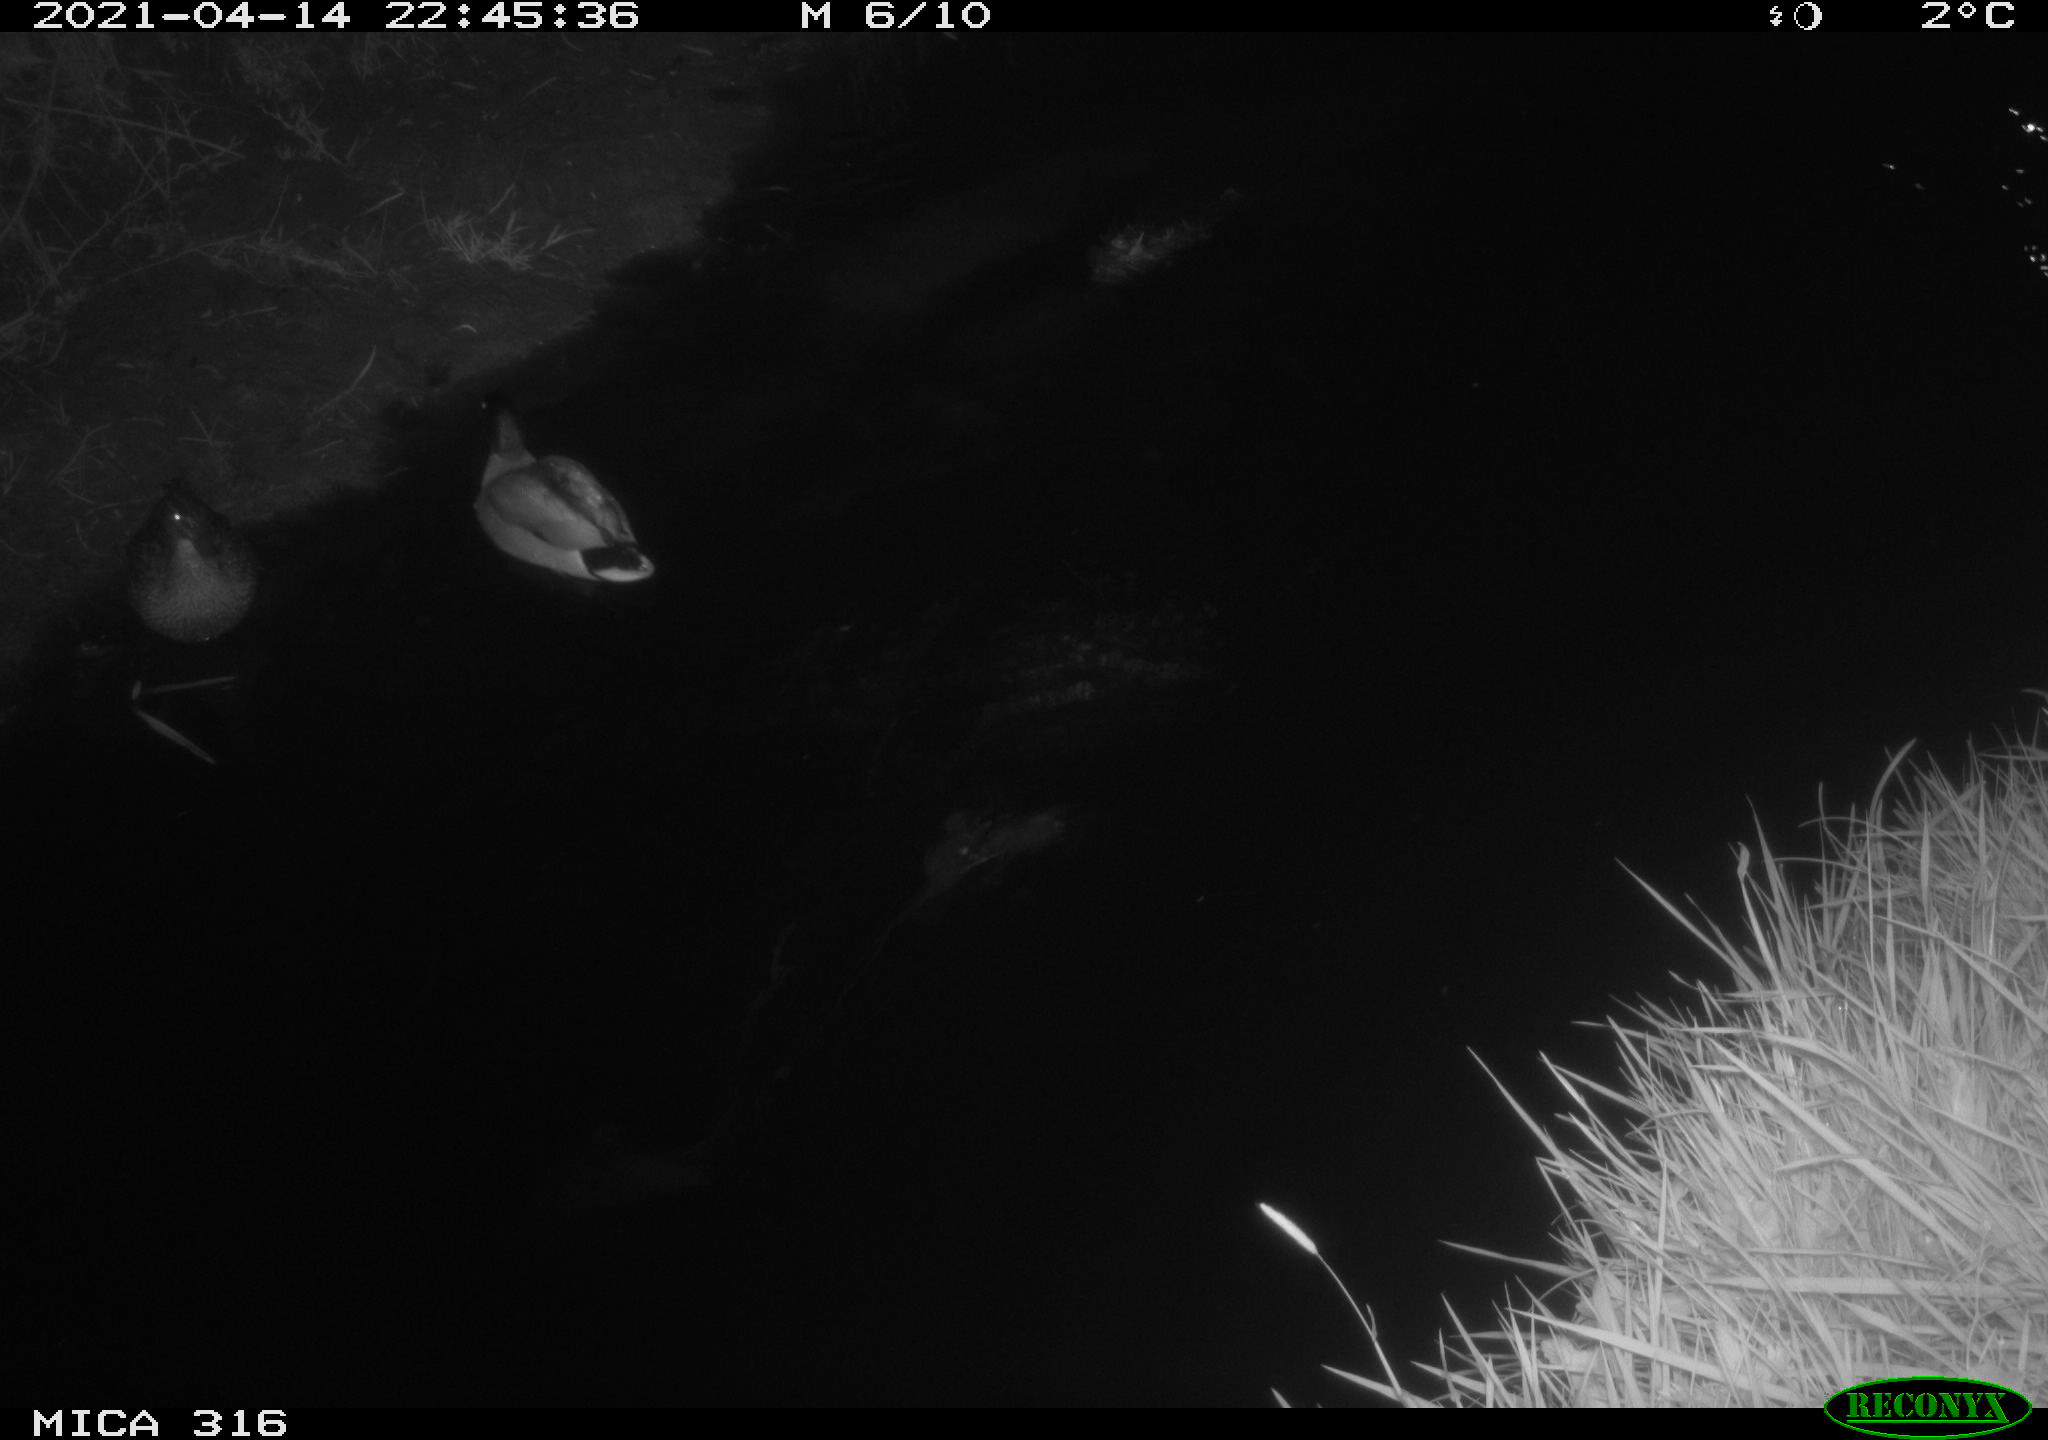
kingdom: Animalia
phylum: Chordata
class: Aves
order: Anseriformes
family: Anatidae
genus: Anas
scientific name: Anas platyrhynchos
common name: Mallard
